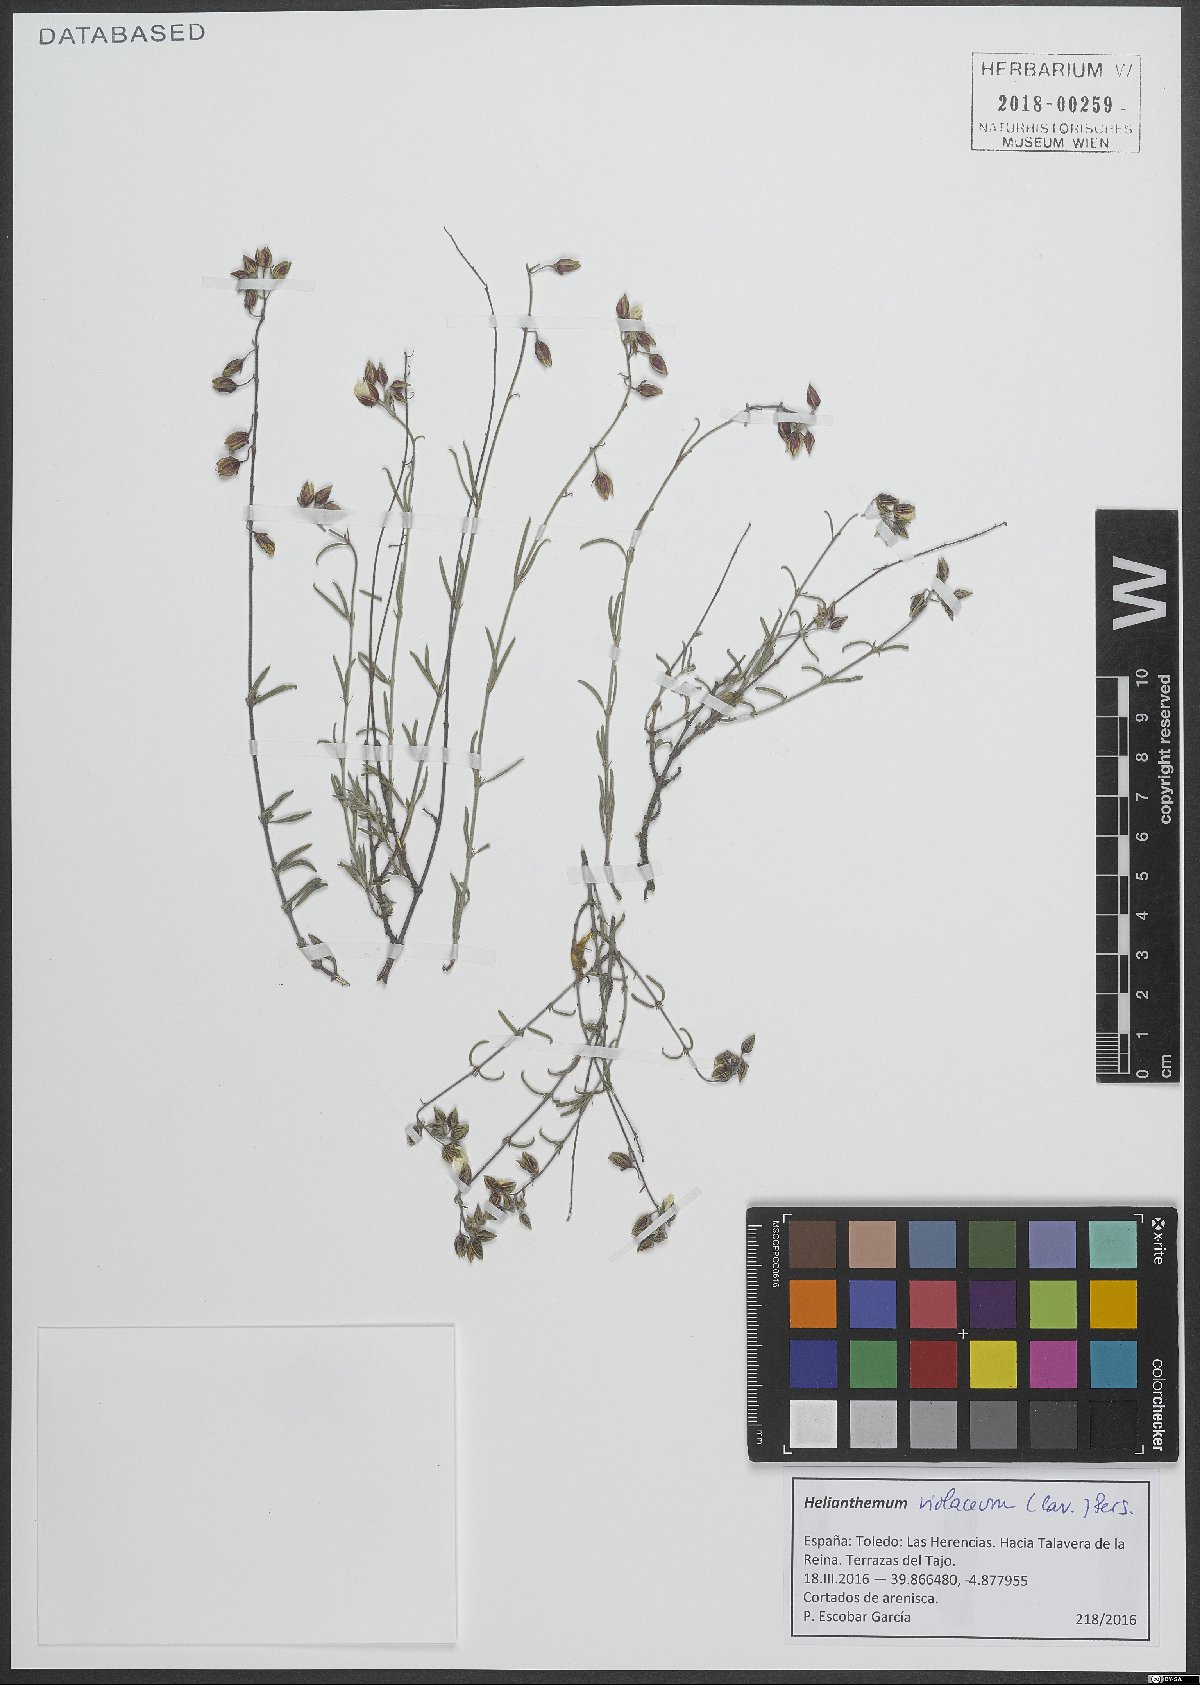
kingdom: Plantae
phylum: Tracheophyta
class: Magnoliopsida
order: Malvales
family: Cistaceae
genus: Helianthemum
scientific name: Helianthemum violaceum
